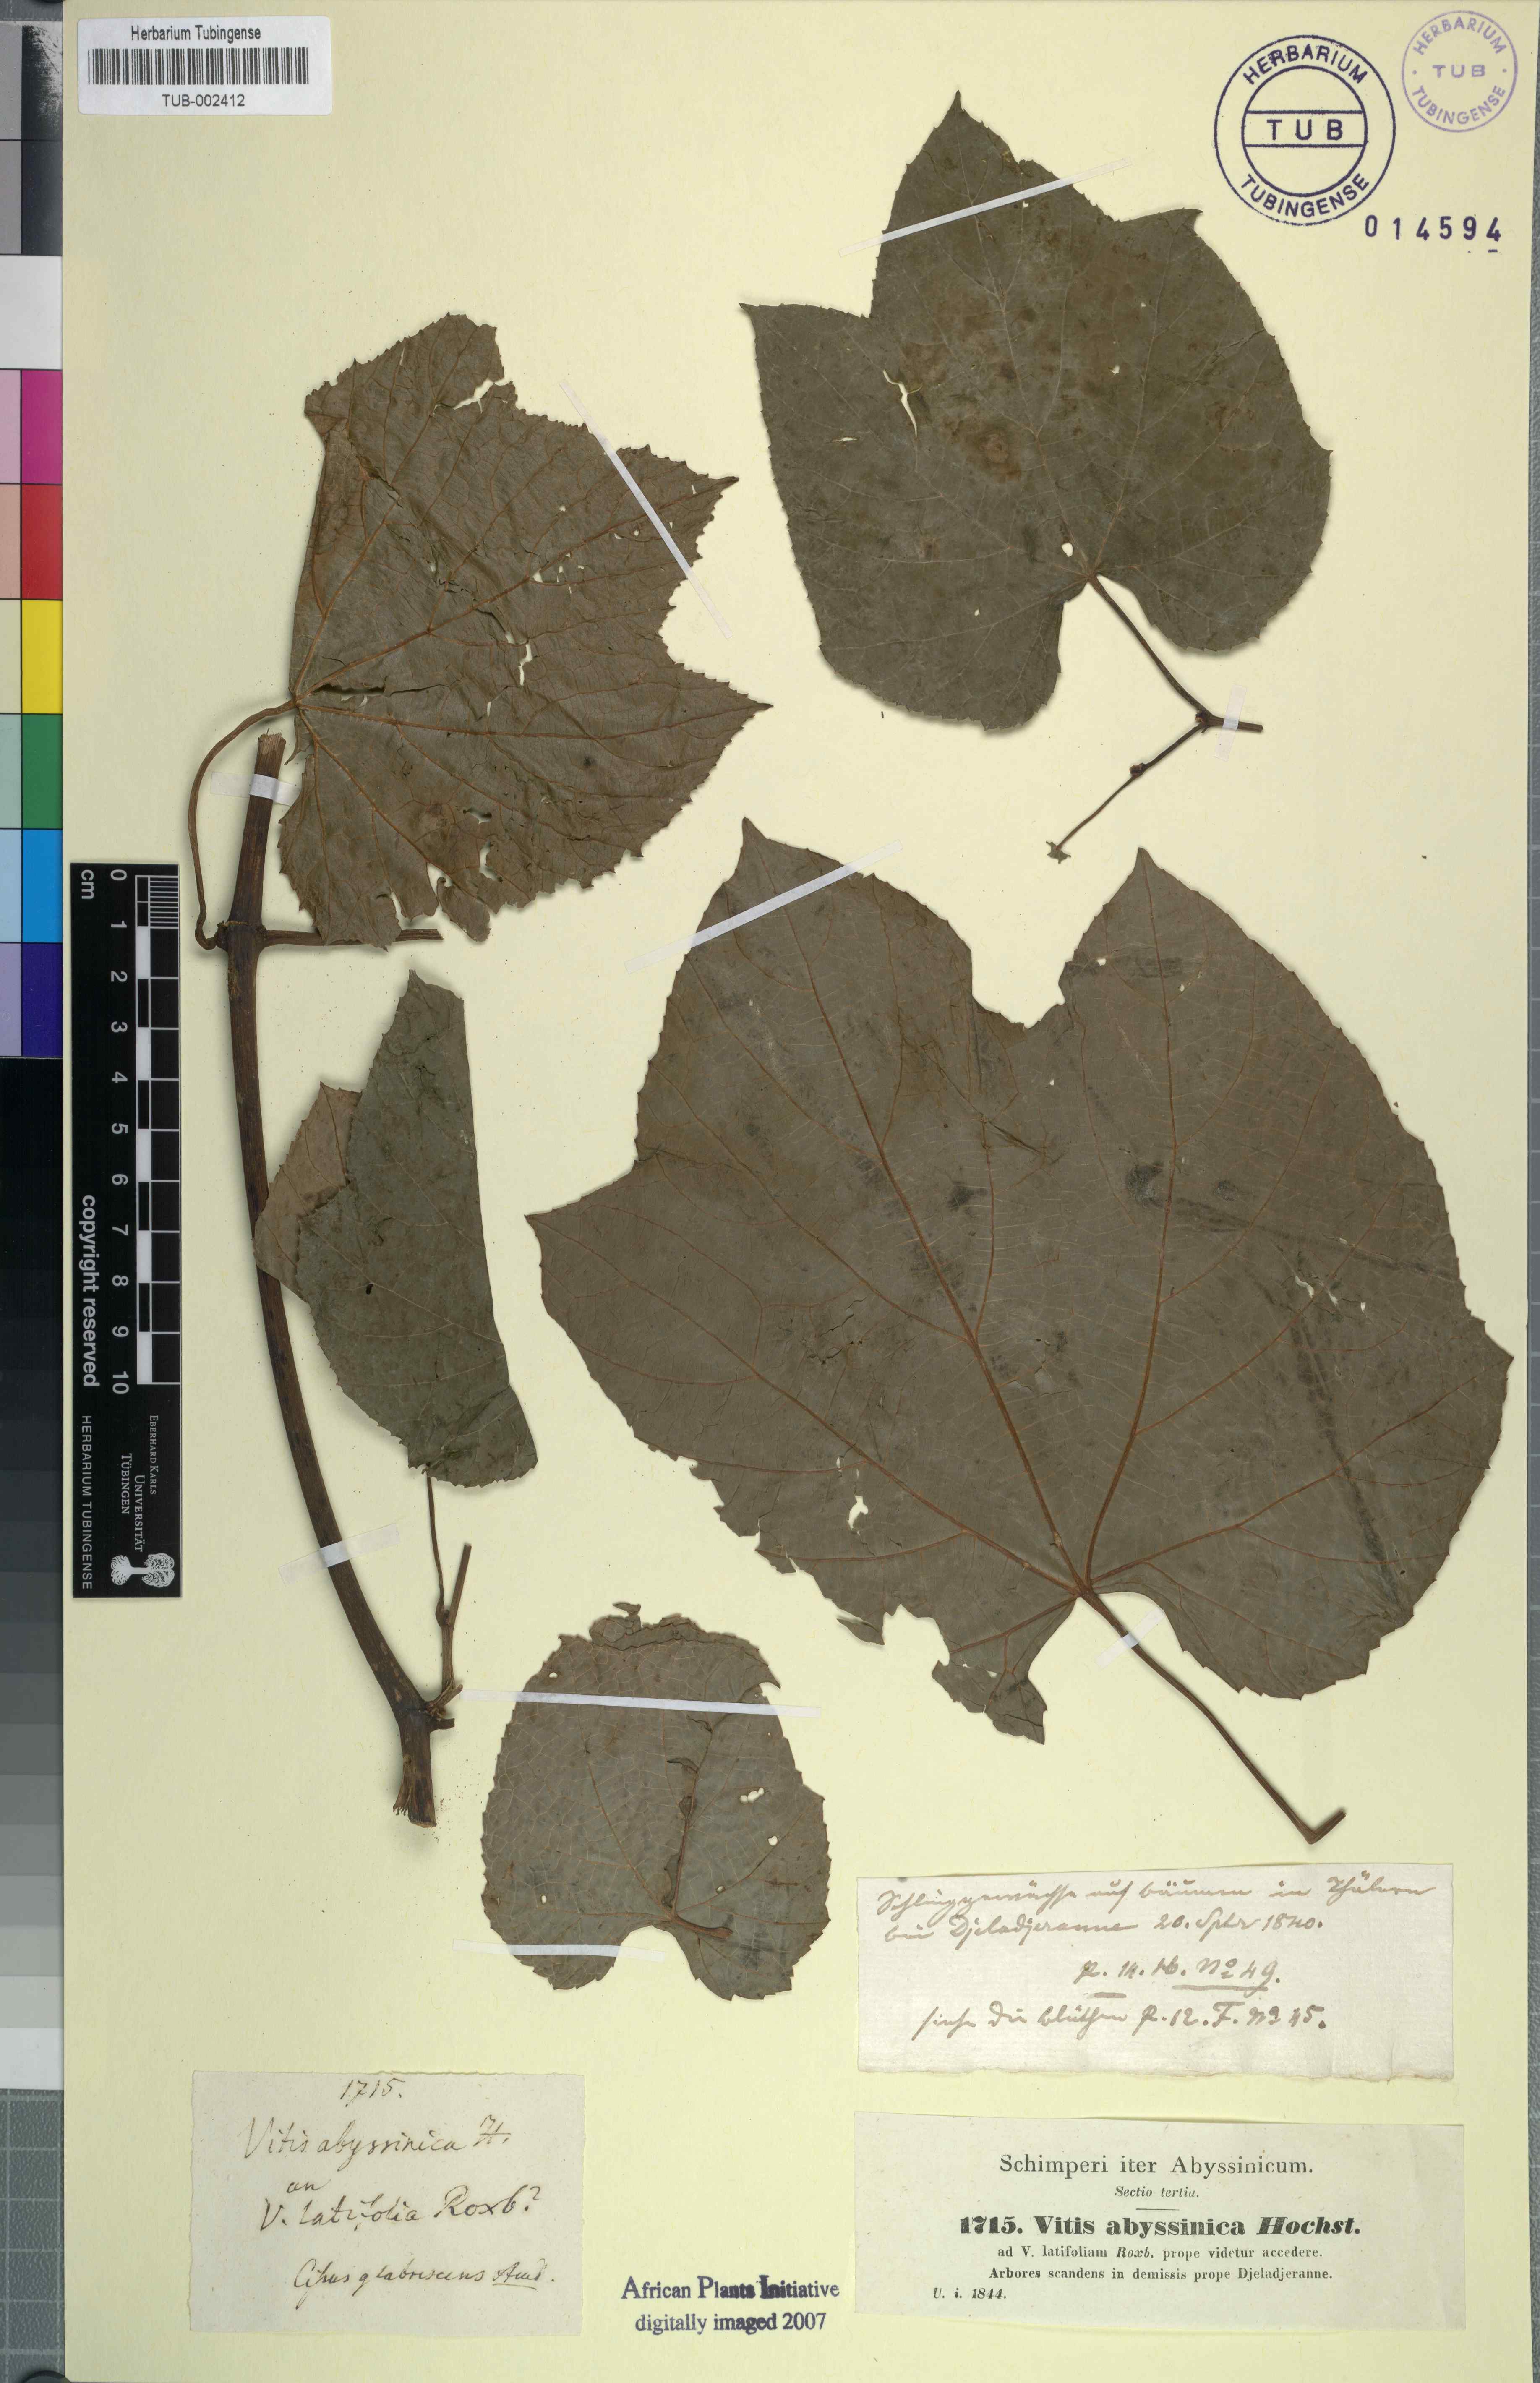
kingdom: Plantae
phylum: Tracheophyta
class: Magnoliopsida
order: Vitales
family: Vitaceae
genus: Ampelocissus
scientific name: Ampelocissus abyssinica
